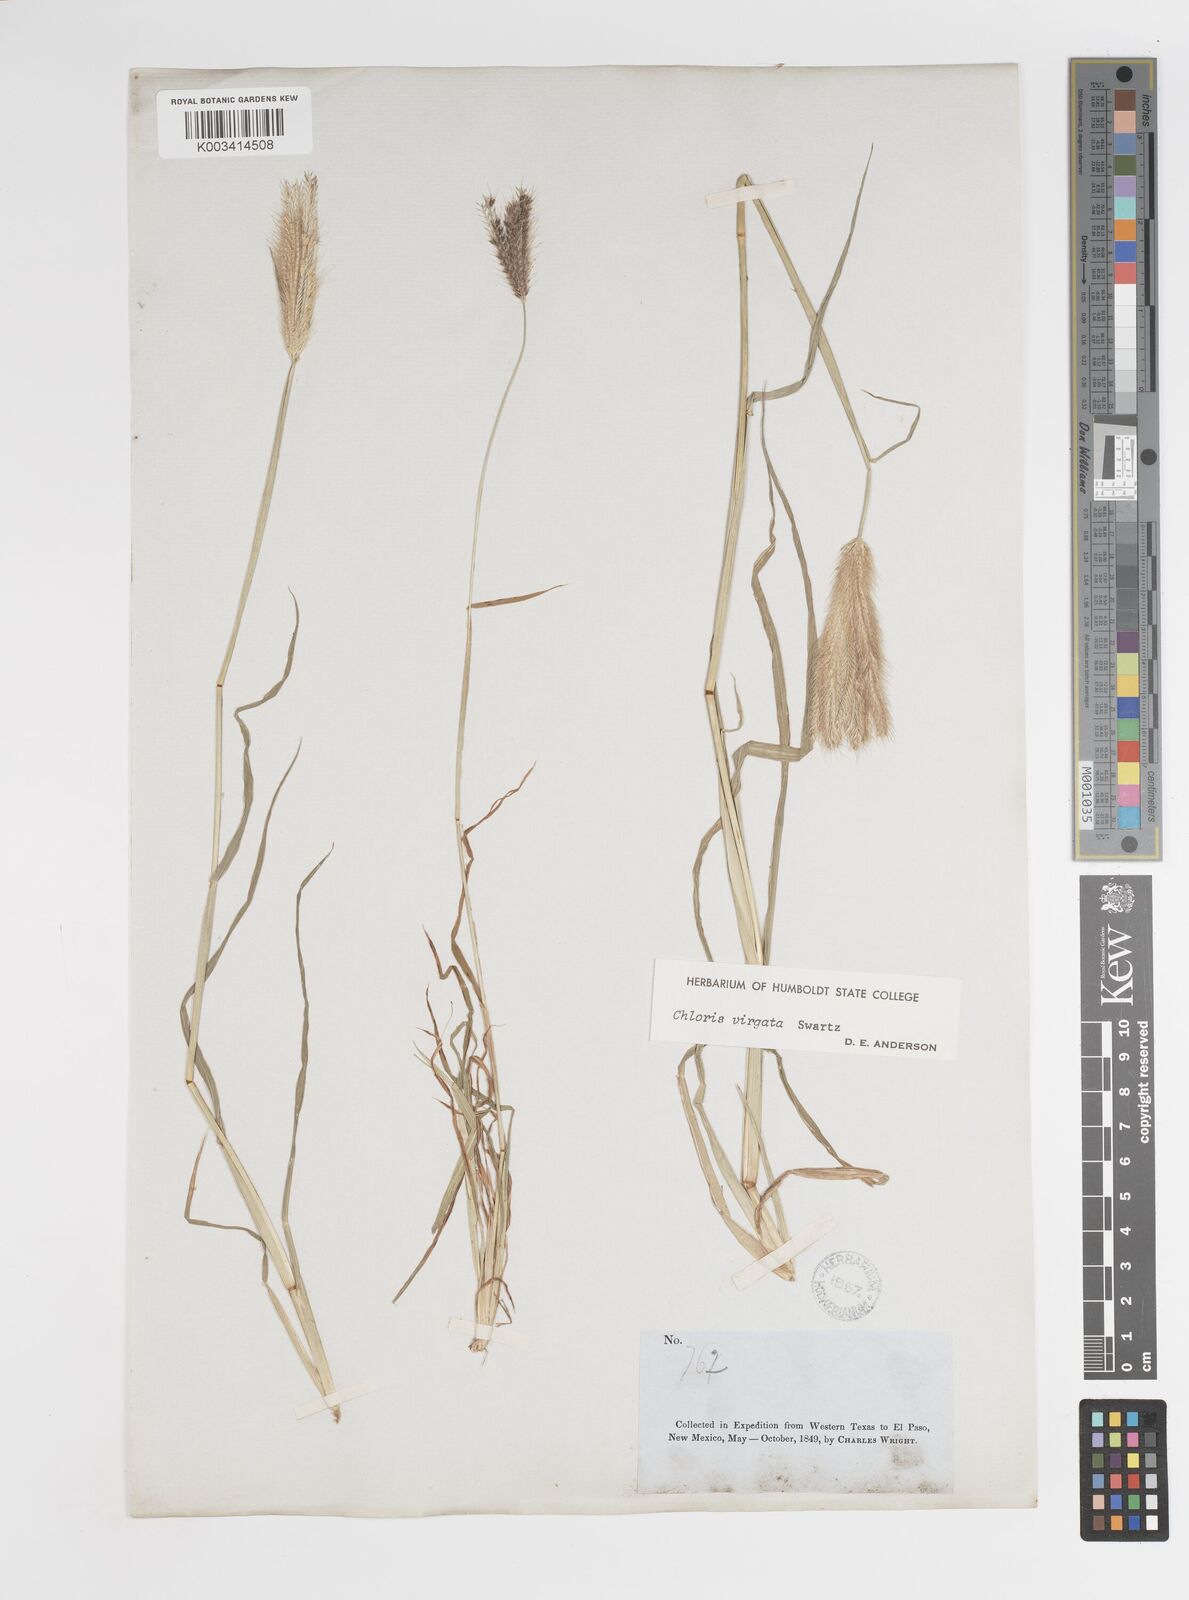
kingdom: Plantae
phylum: Tracheophyta
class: Liliopsida
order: Poales
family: Poaceae
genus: Chloris
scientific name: Chloris virgata
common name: Feathery rhodes-grass
